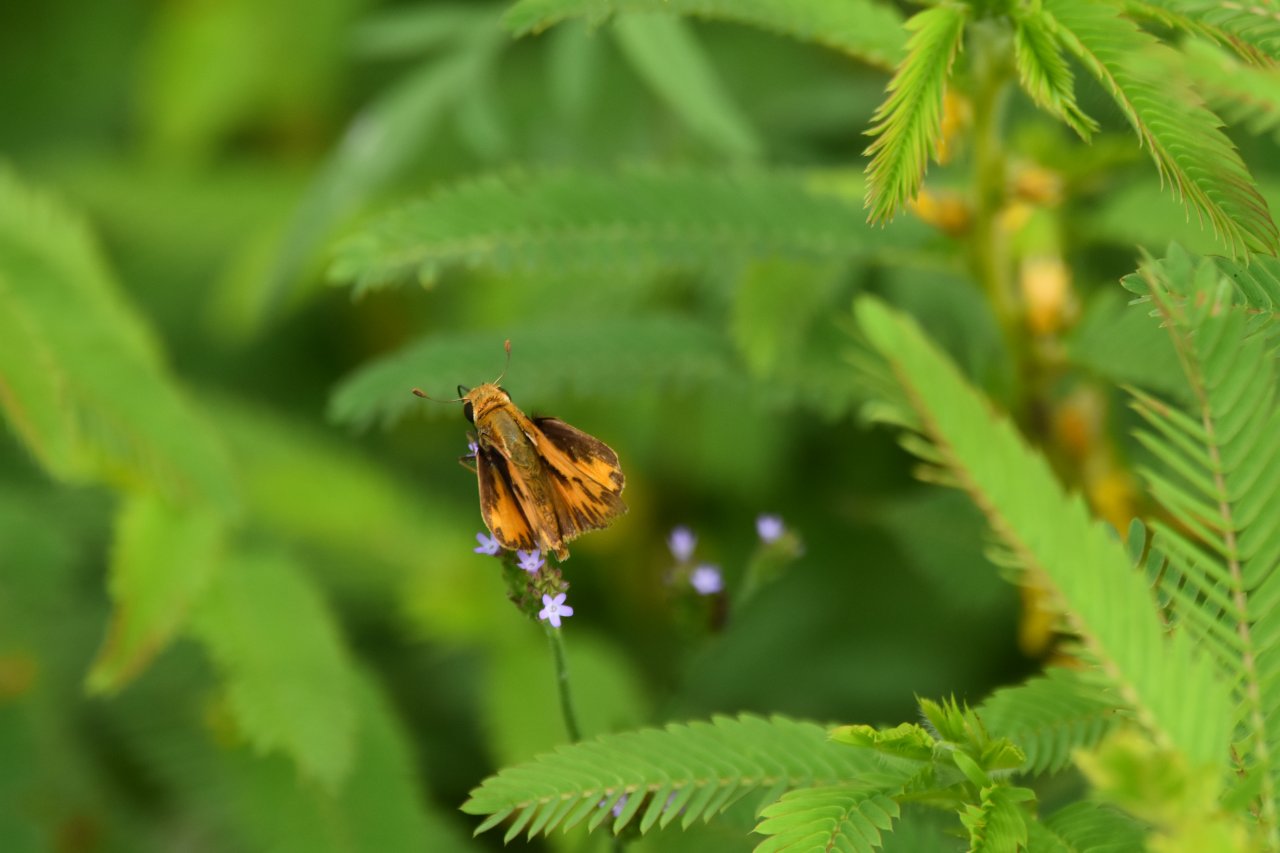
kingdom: Animalia
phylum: Arthropoda
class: Insecta
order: Lepidoptera
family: Hesperiidae
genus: Hylephila
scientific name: Hylephila phyleus
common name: Fiery Skipper
